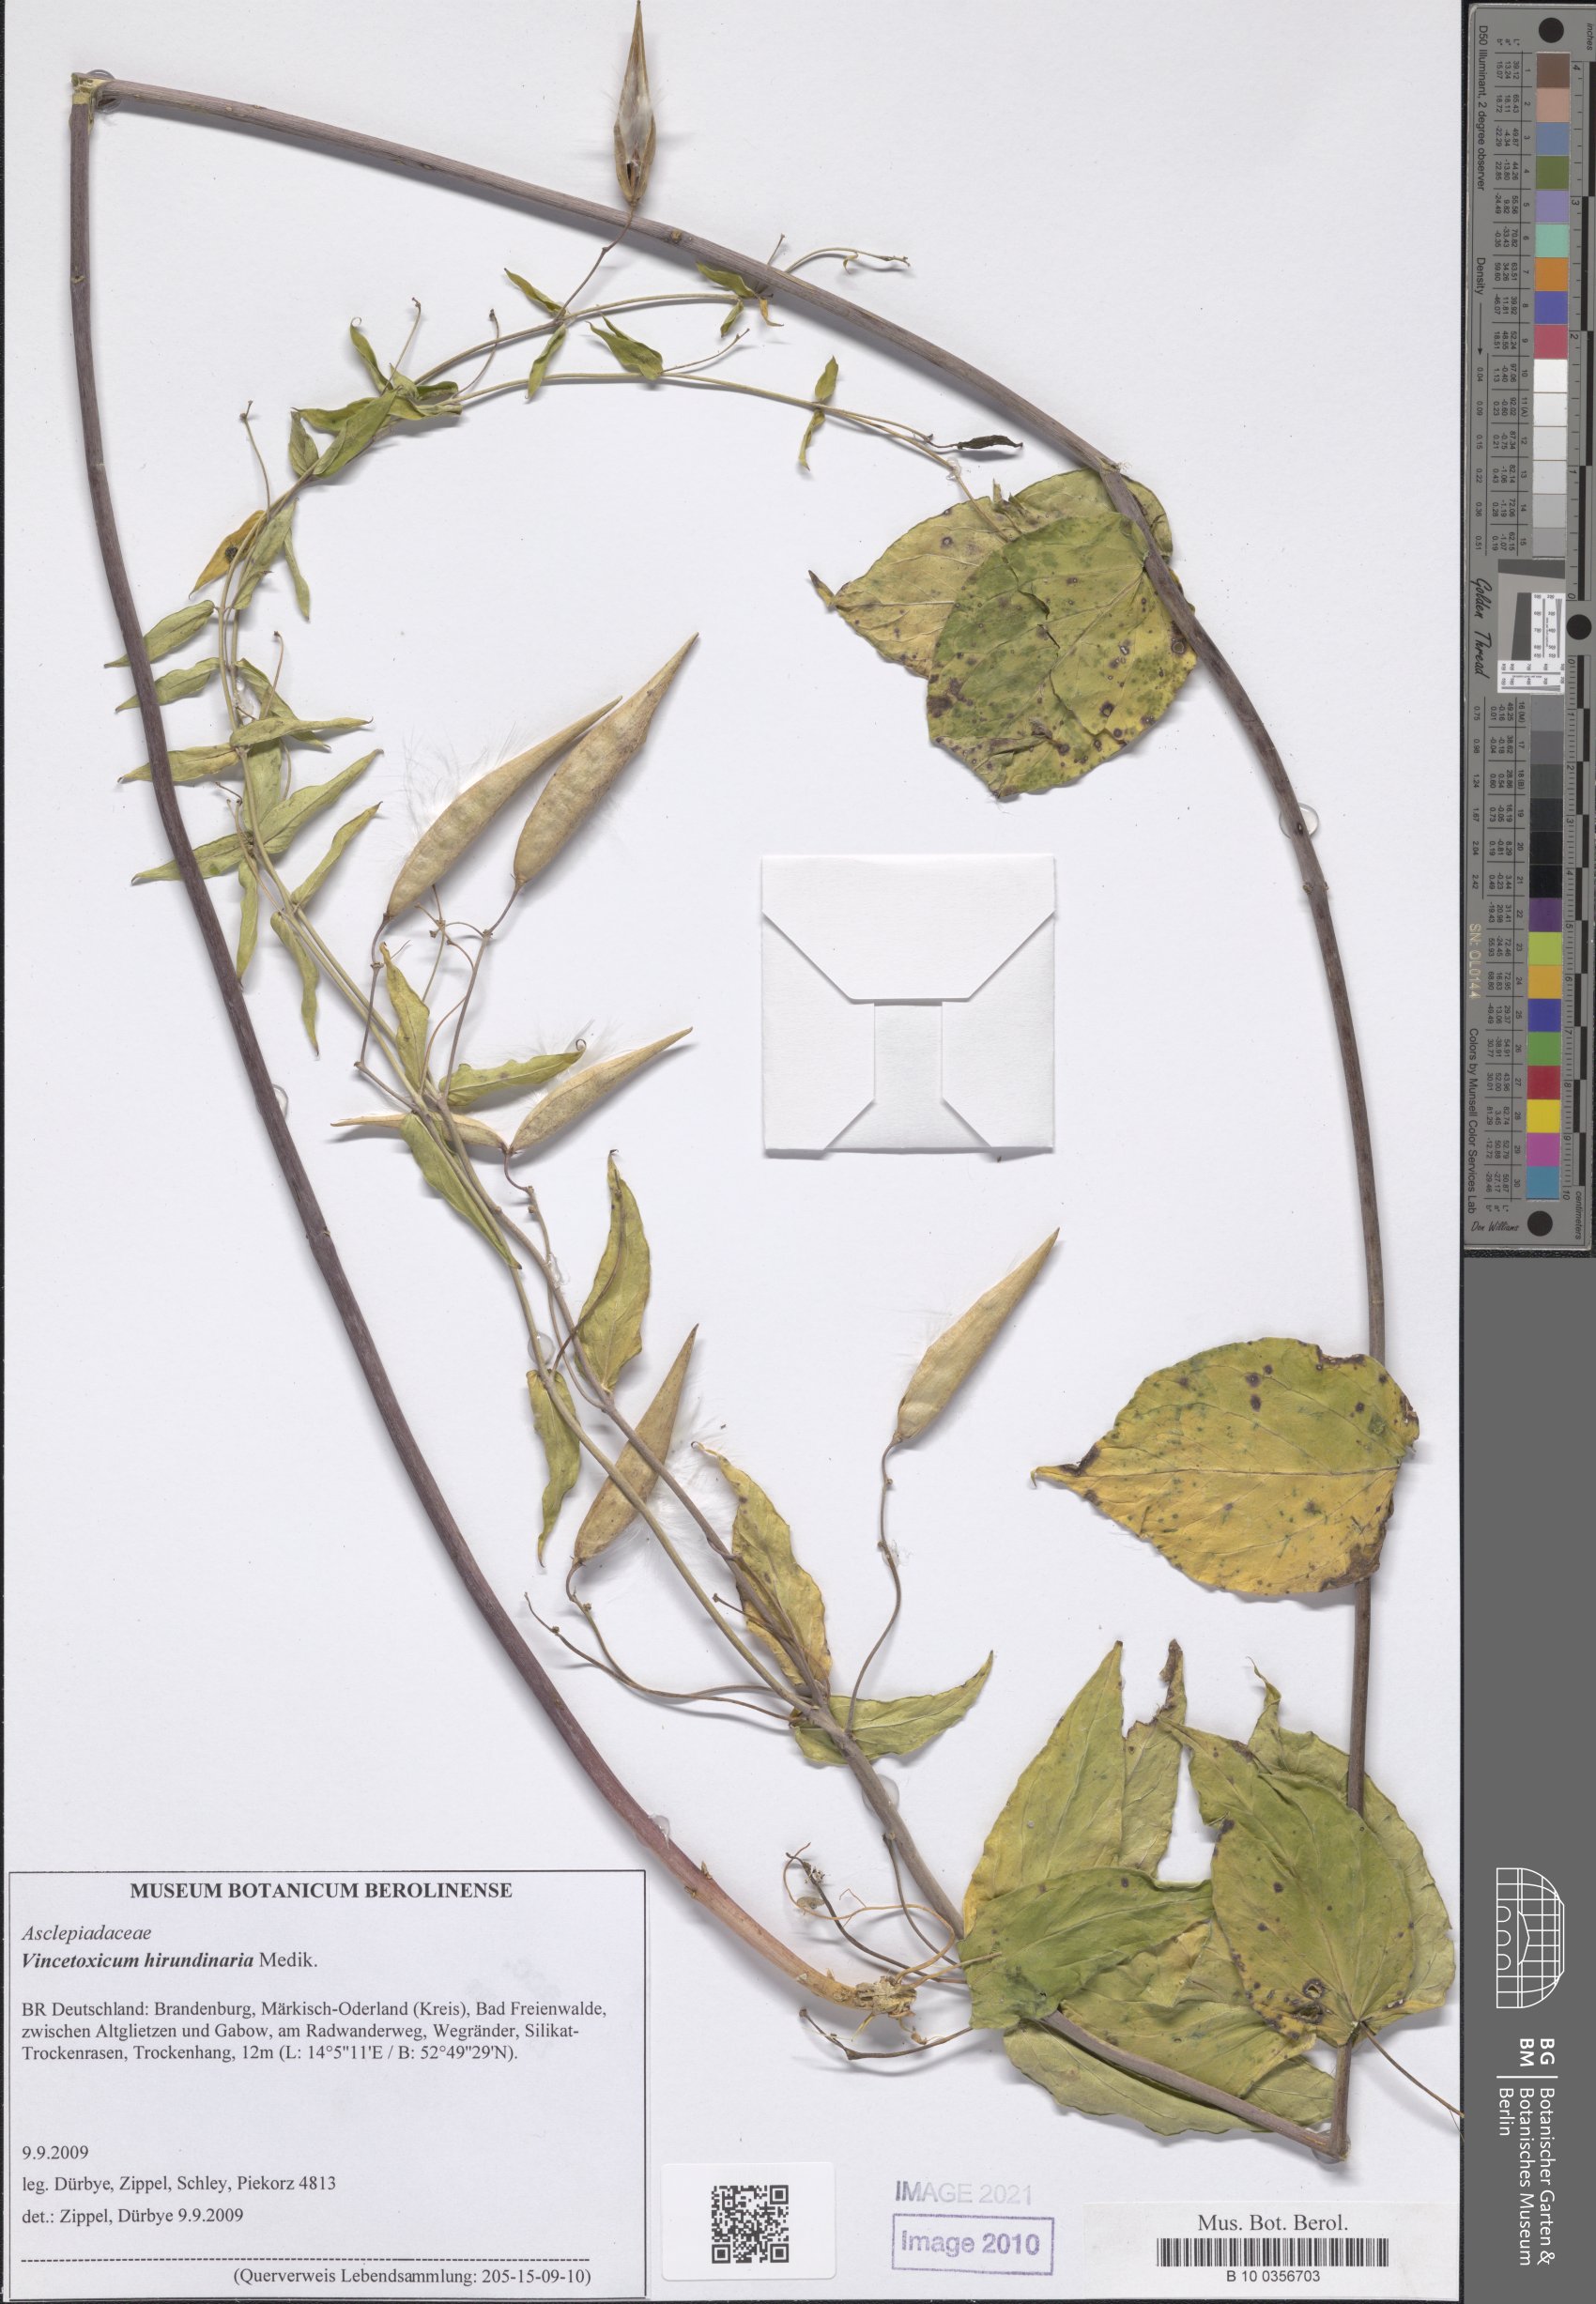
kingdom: Plantae
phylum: Tracheophyta
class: Magnoliopsida
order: Gentianales
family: Apocynaceae
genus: Vincetoxicum
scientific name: Vincetoxicum hirundinaria
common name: White swallowwort
